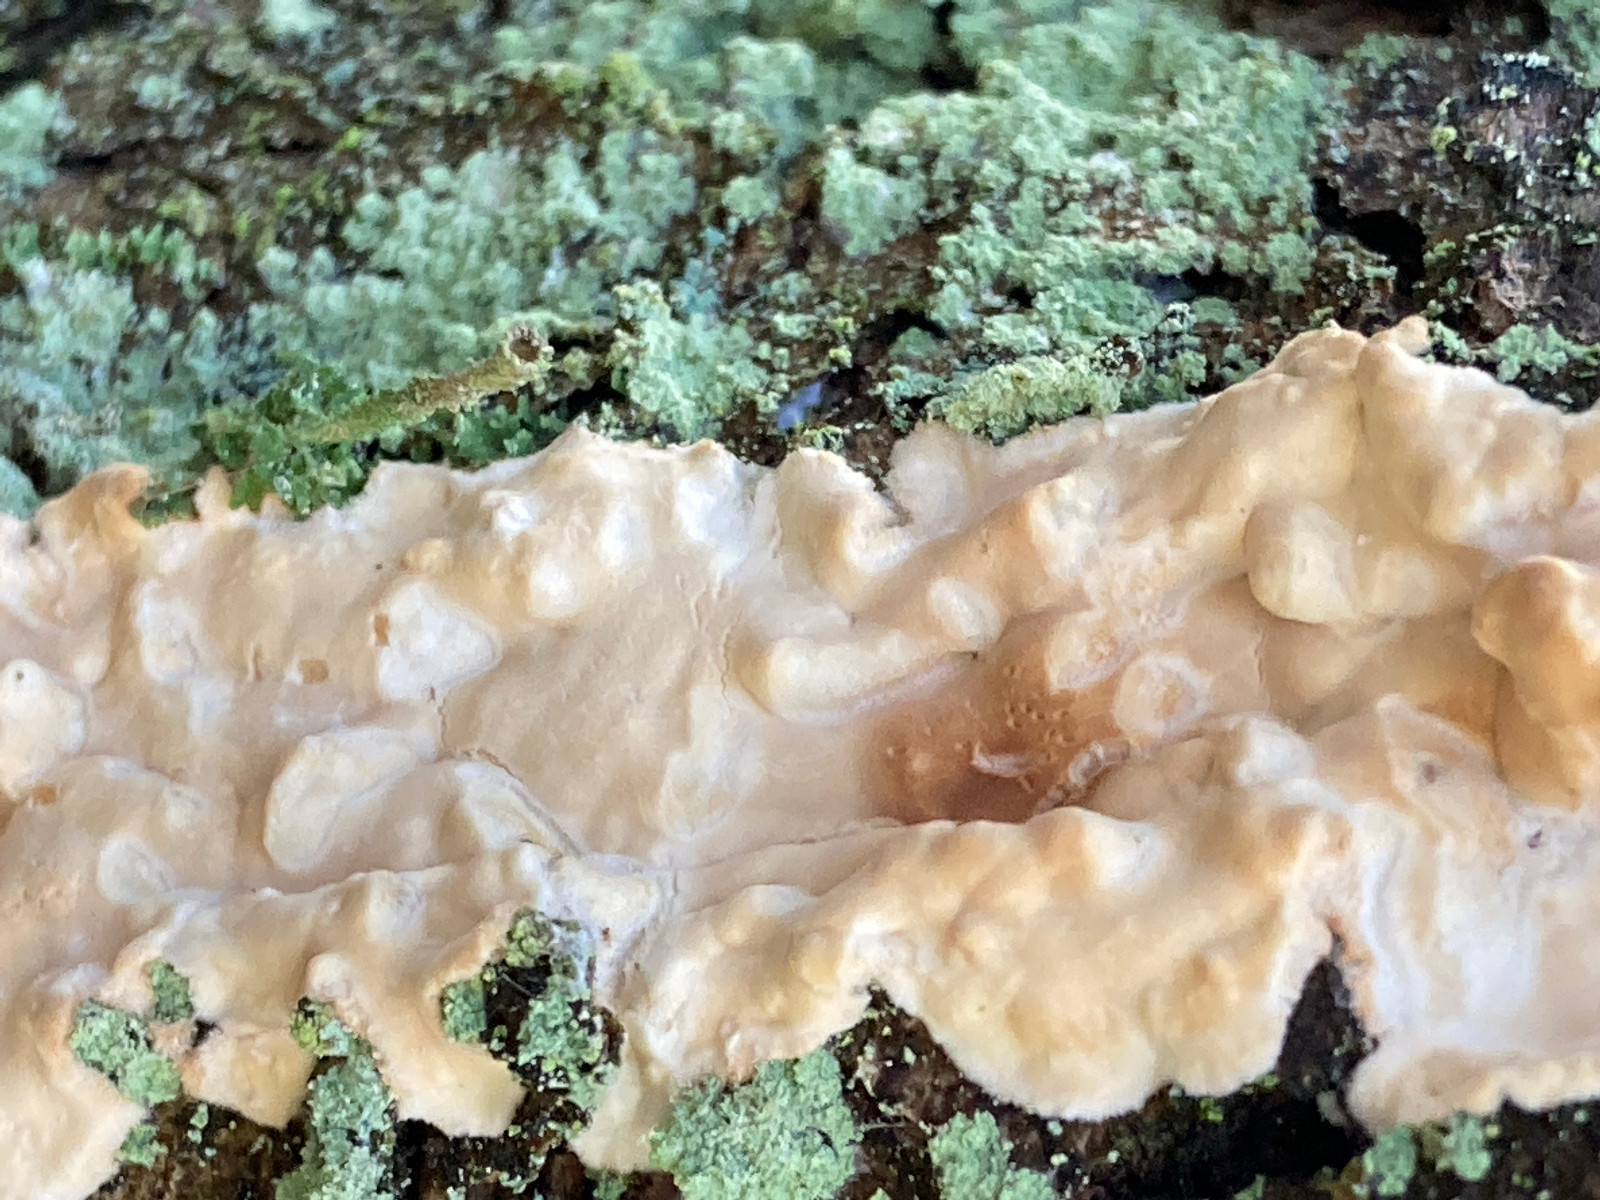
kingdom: Fungi
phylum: Basidiomycota
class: Agaricomycetes
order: Polyporales
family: Dacryobolaceae
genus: Dacryobolus
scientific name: Dacryobolus karstenii
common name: glat vulkanskorpe
